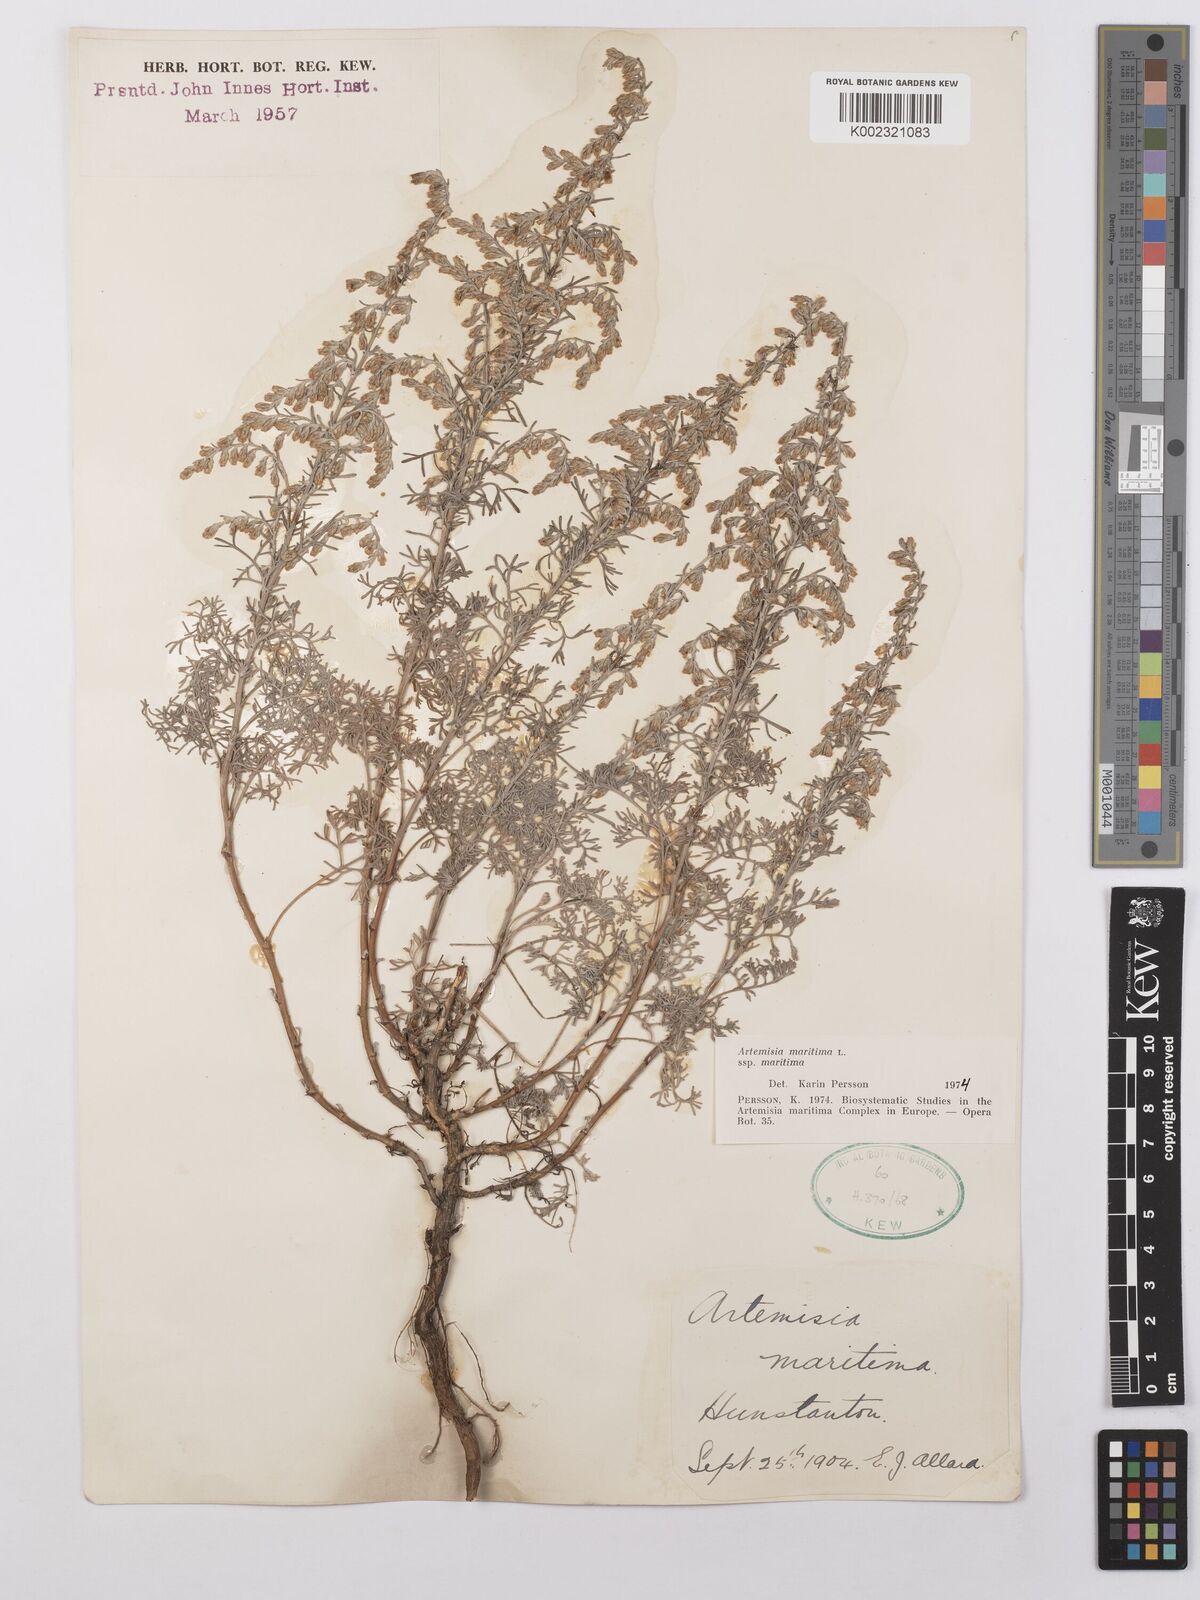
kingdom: Plantae
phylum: Tracheophyta
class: Magnoliopsida
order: Asterales
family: Asteraceae
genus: Artemisia
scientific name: Artemisia maritima
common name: Wormseed
